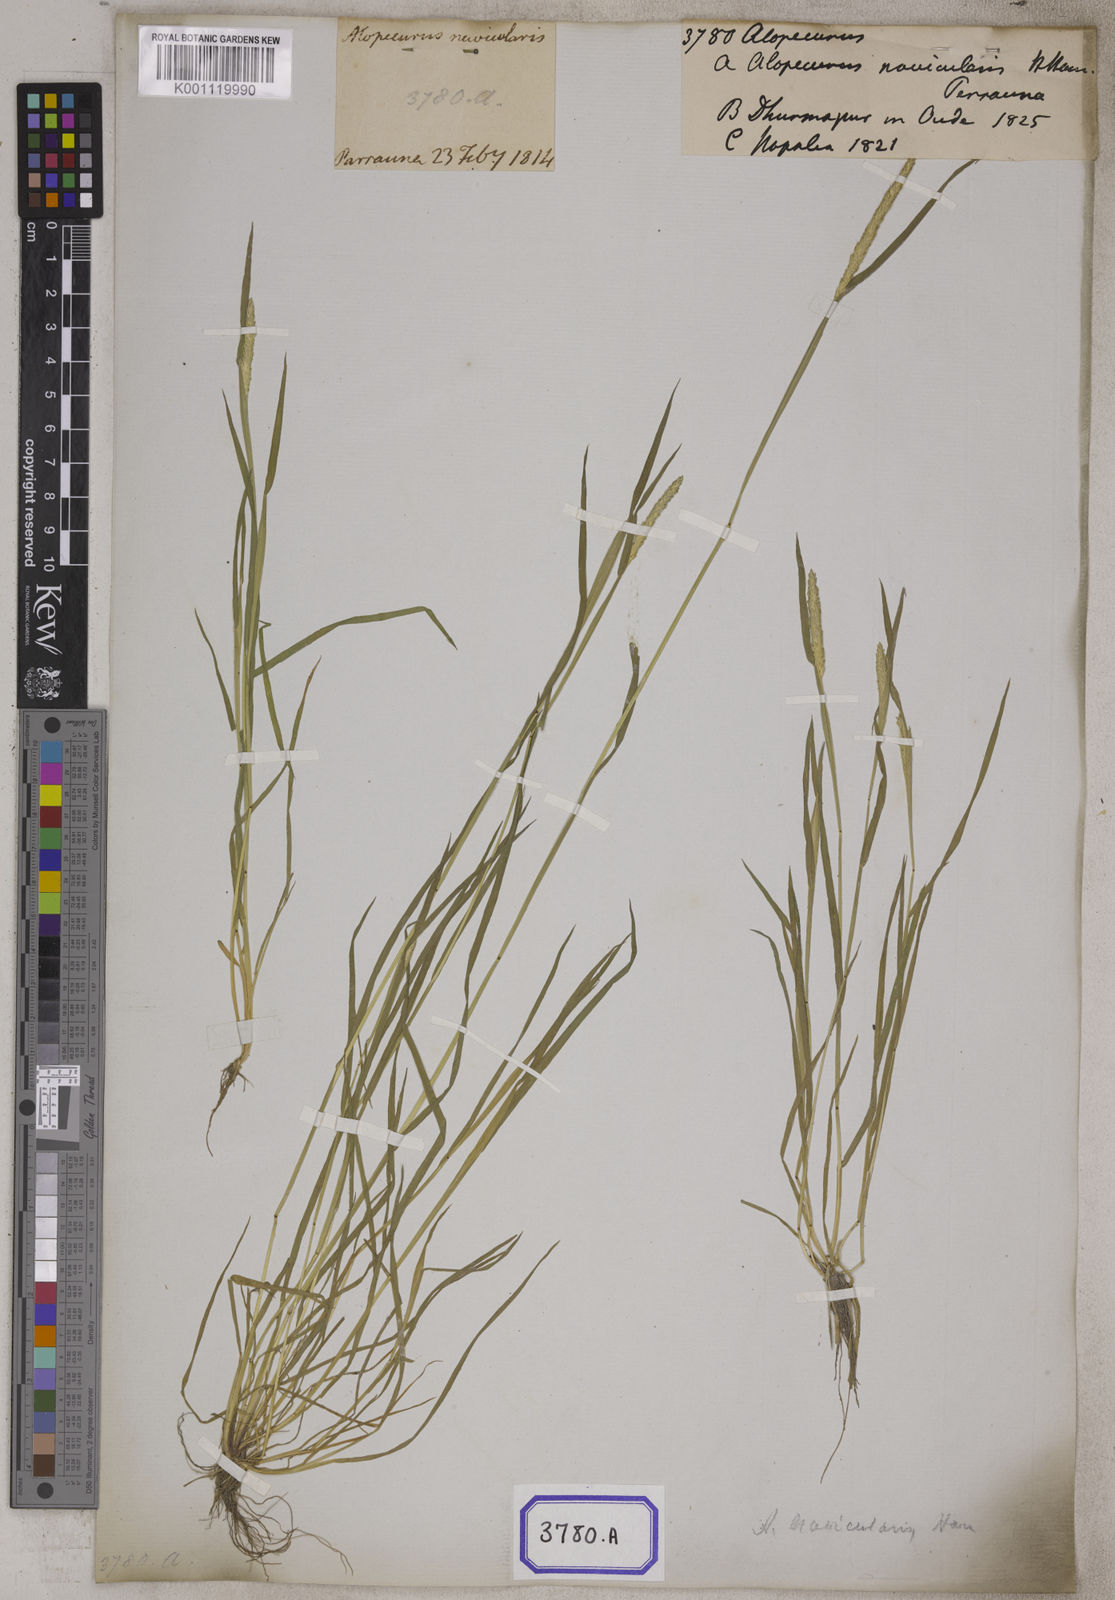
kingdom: Plantae
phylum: Tracheophyta
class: Liliopsida
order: Poales
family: Poaceae
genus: Alopecurus
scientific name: Alopecurus
